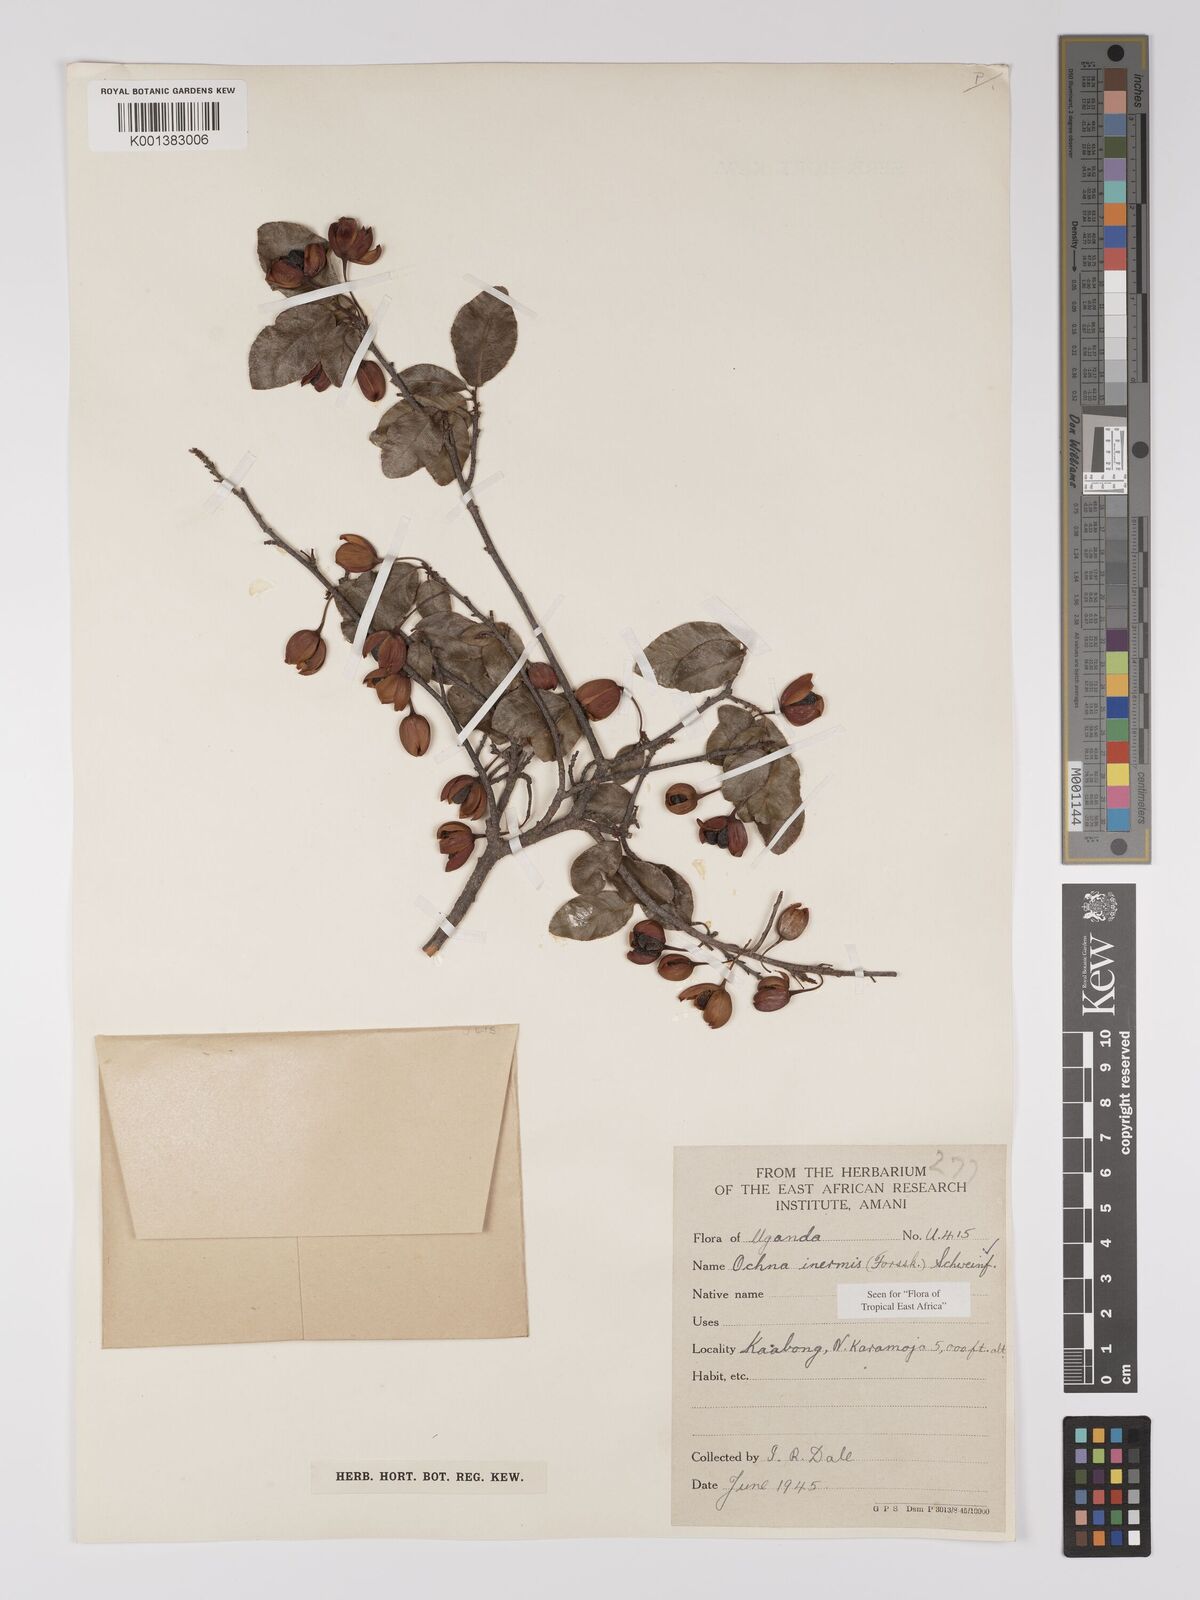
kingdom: Plantae
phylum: Tracheophyta
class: Magnoliopsida
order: Malpighiales
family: Ochnaceae
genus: Ochna
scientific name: Ochna inermis
